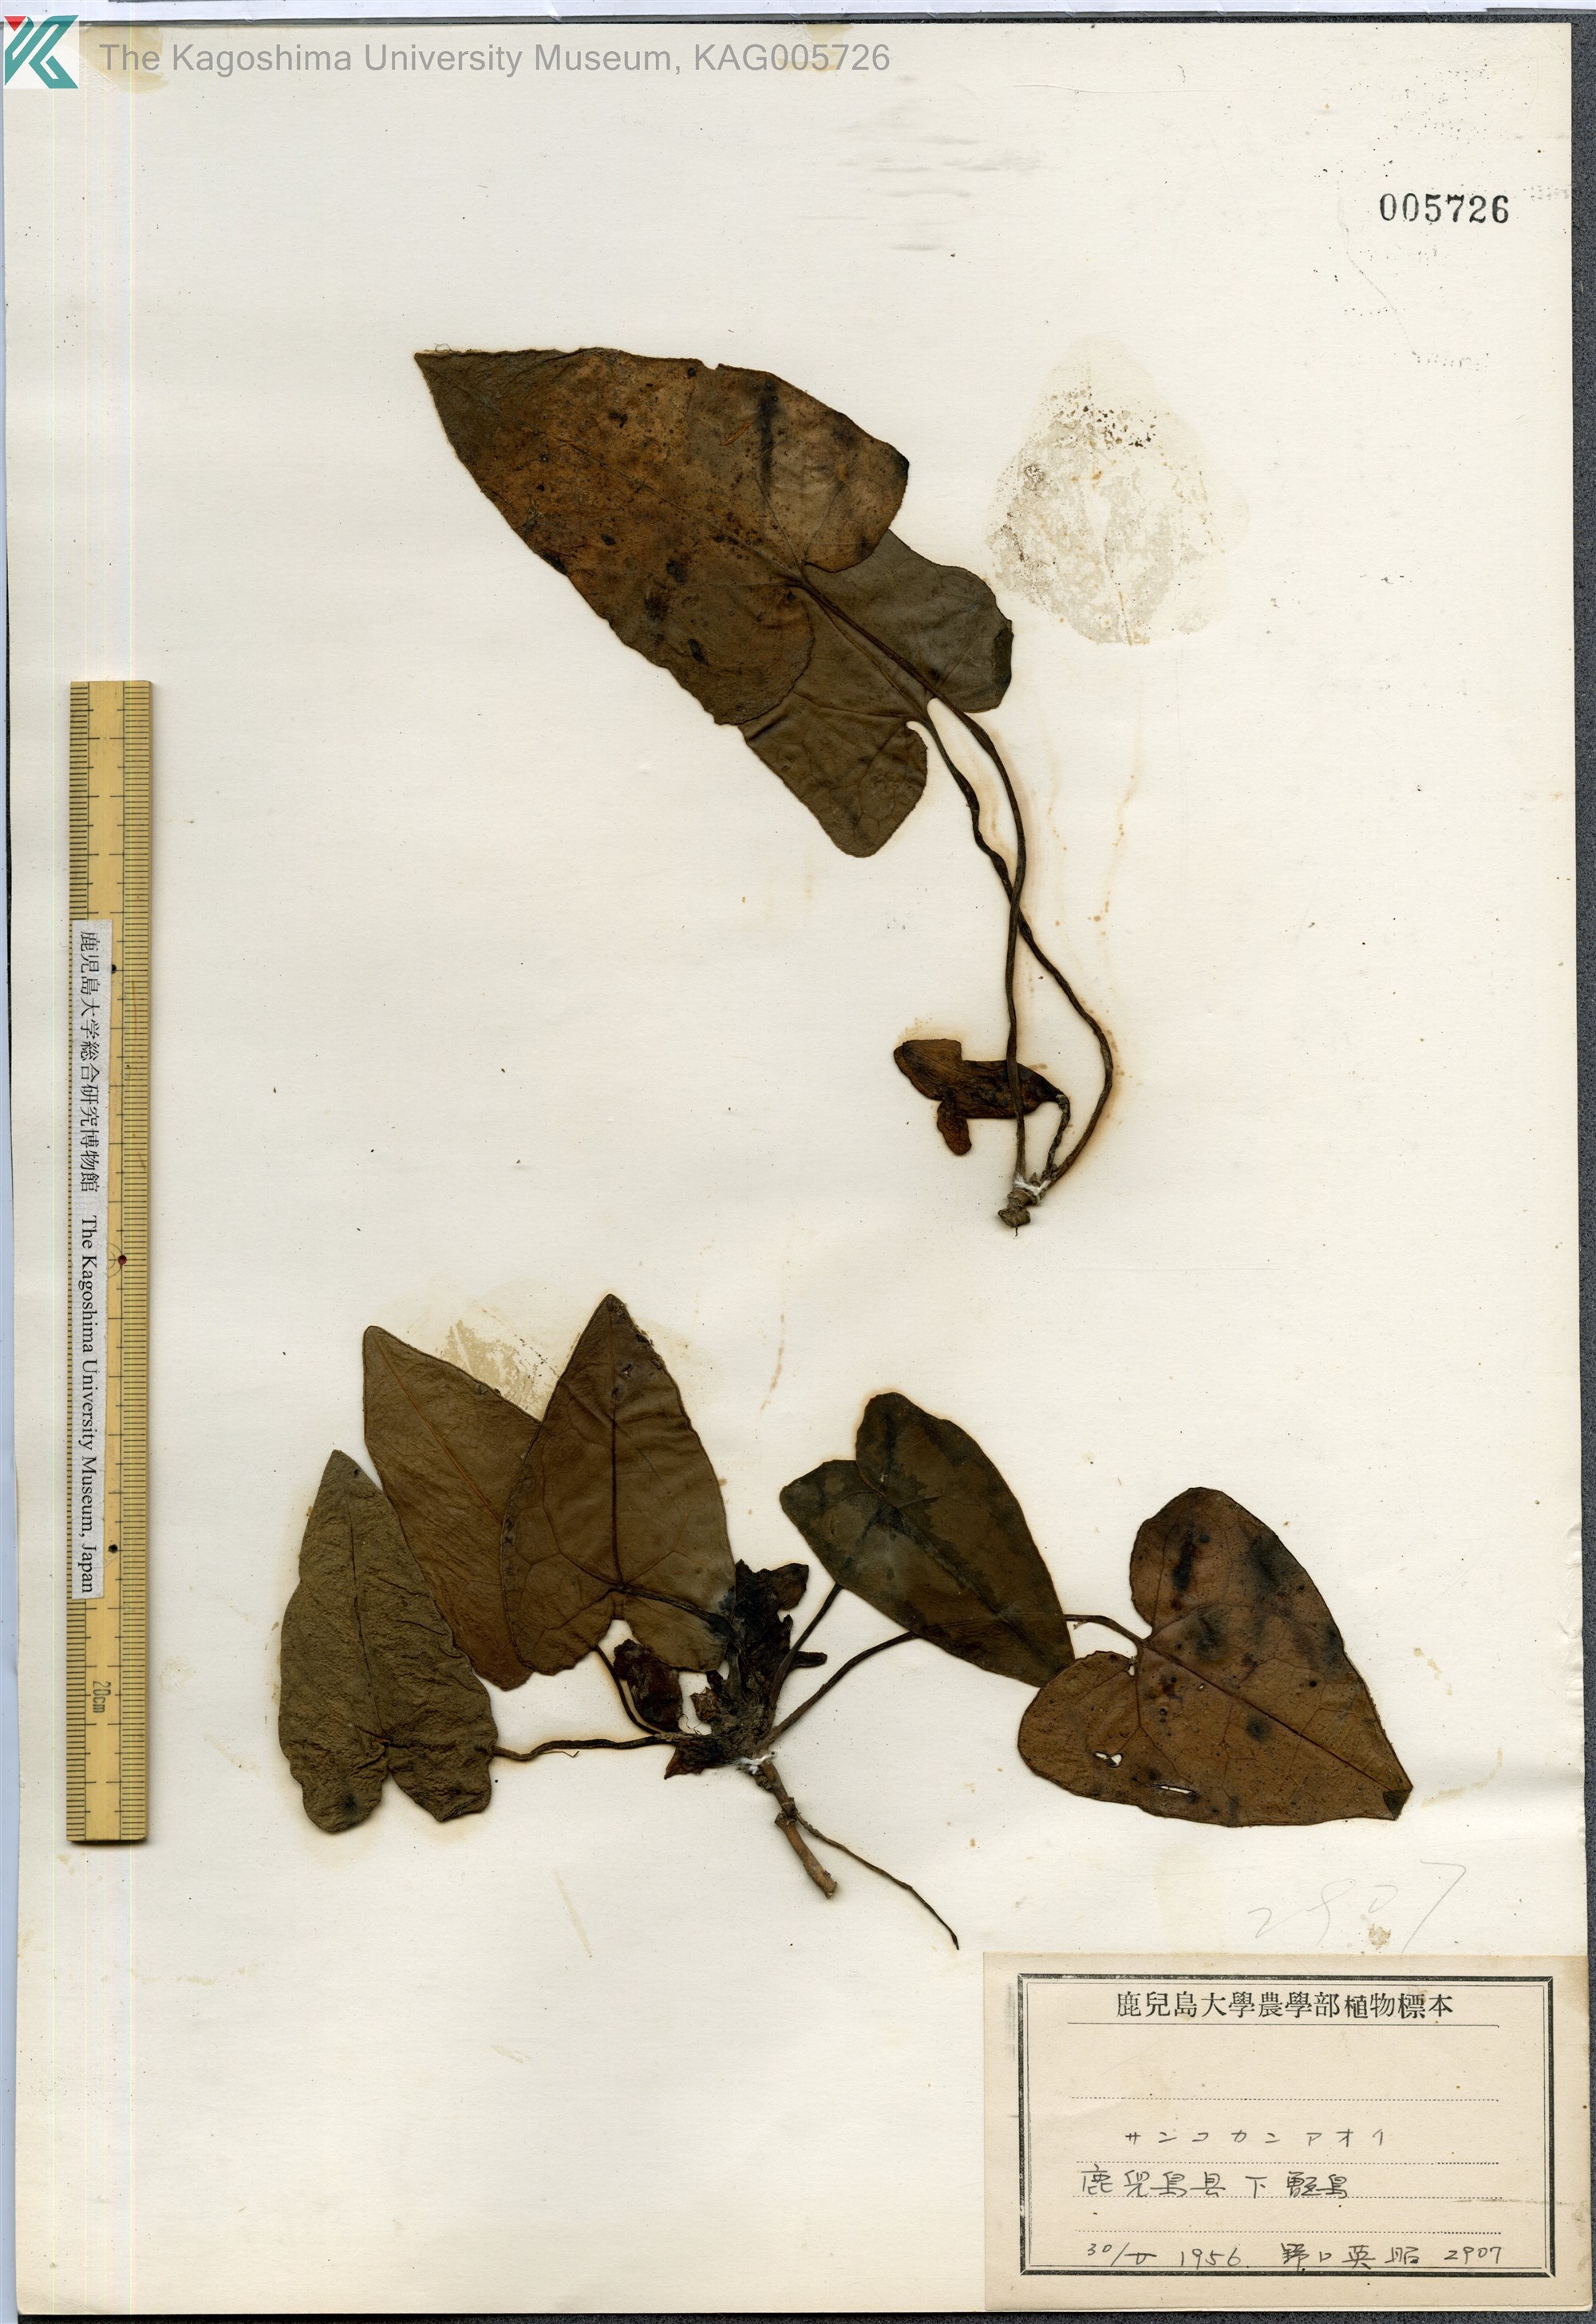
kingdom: Plantae
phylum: Tracheophyta
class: Magnoliopsida
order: Piperales
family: Aristolochiaceae
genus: Asarum
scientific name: Asarum trigynum
